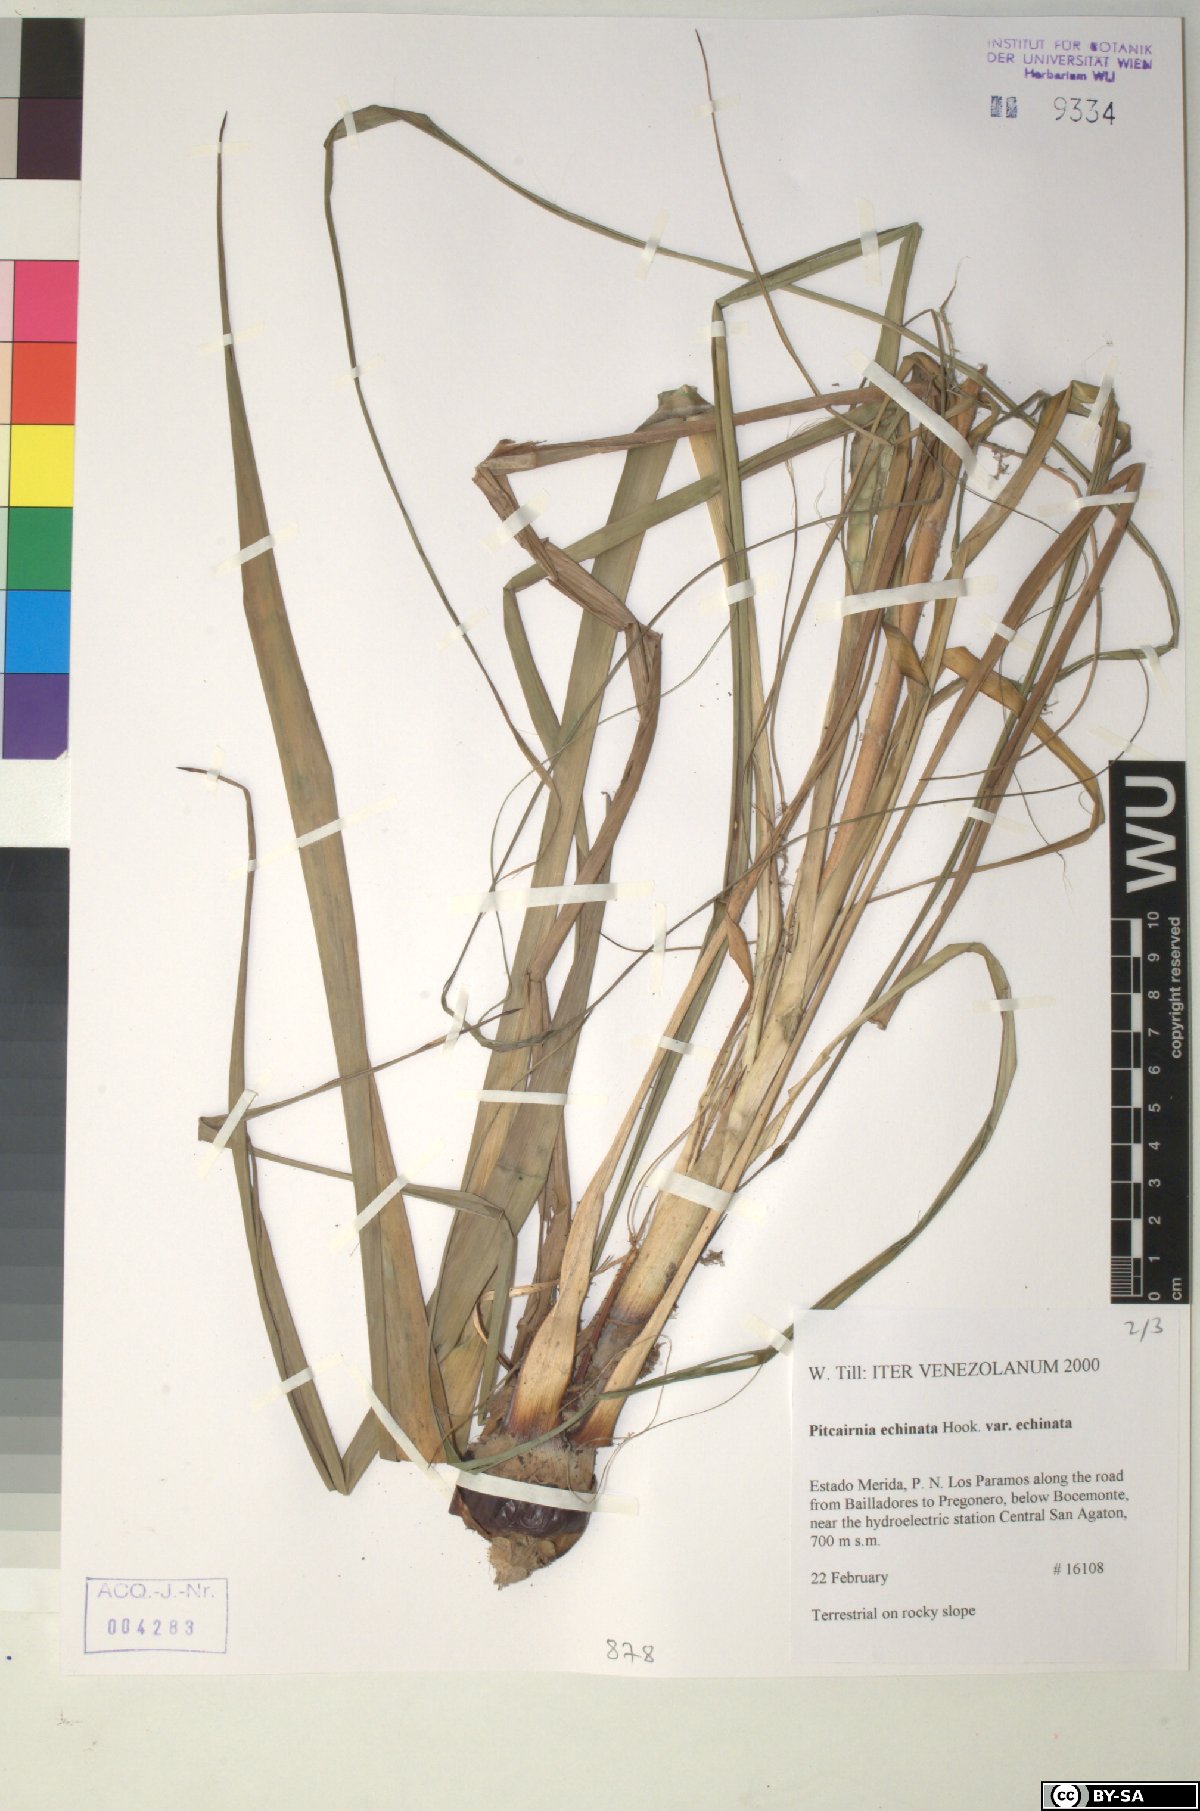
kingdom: Plantae
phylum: Tracheophyta
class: Liliopsida
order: Poales
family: Bromeliaceae
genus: Pitcairnia
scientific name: Pitcairnia echinata
